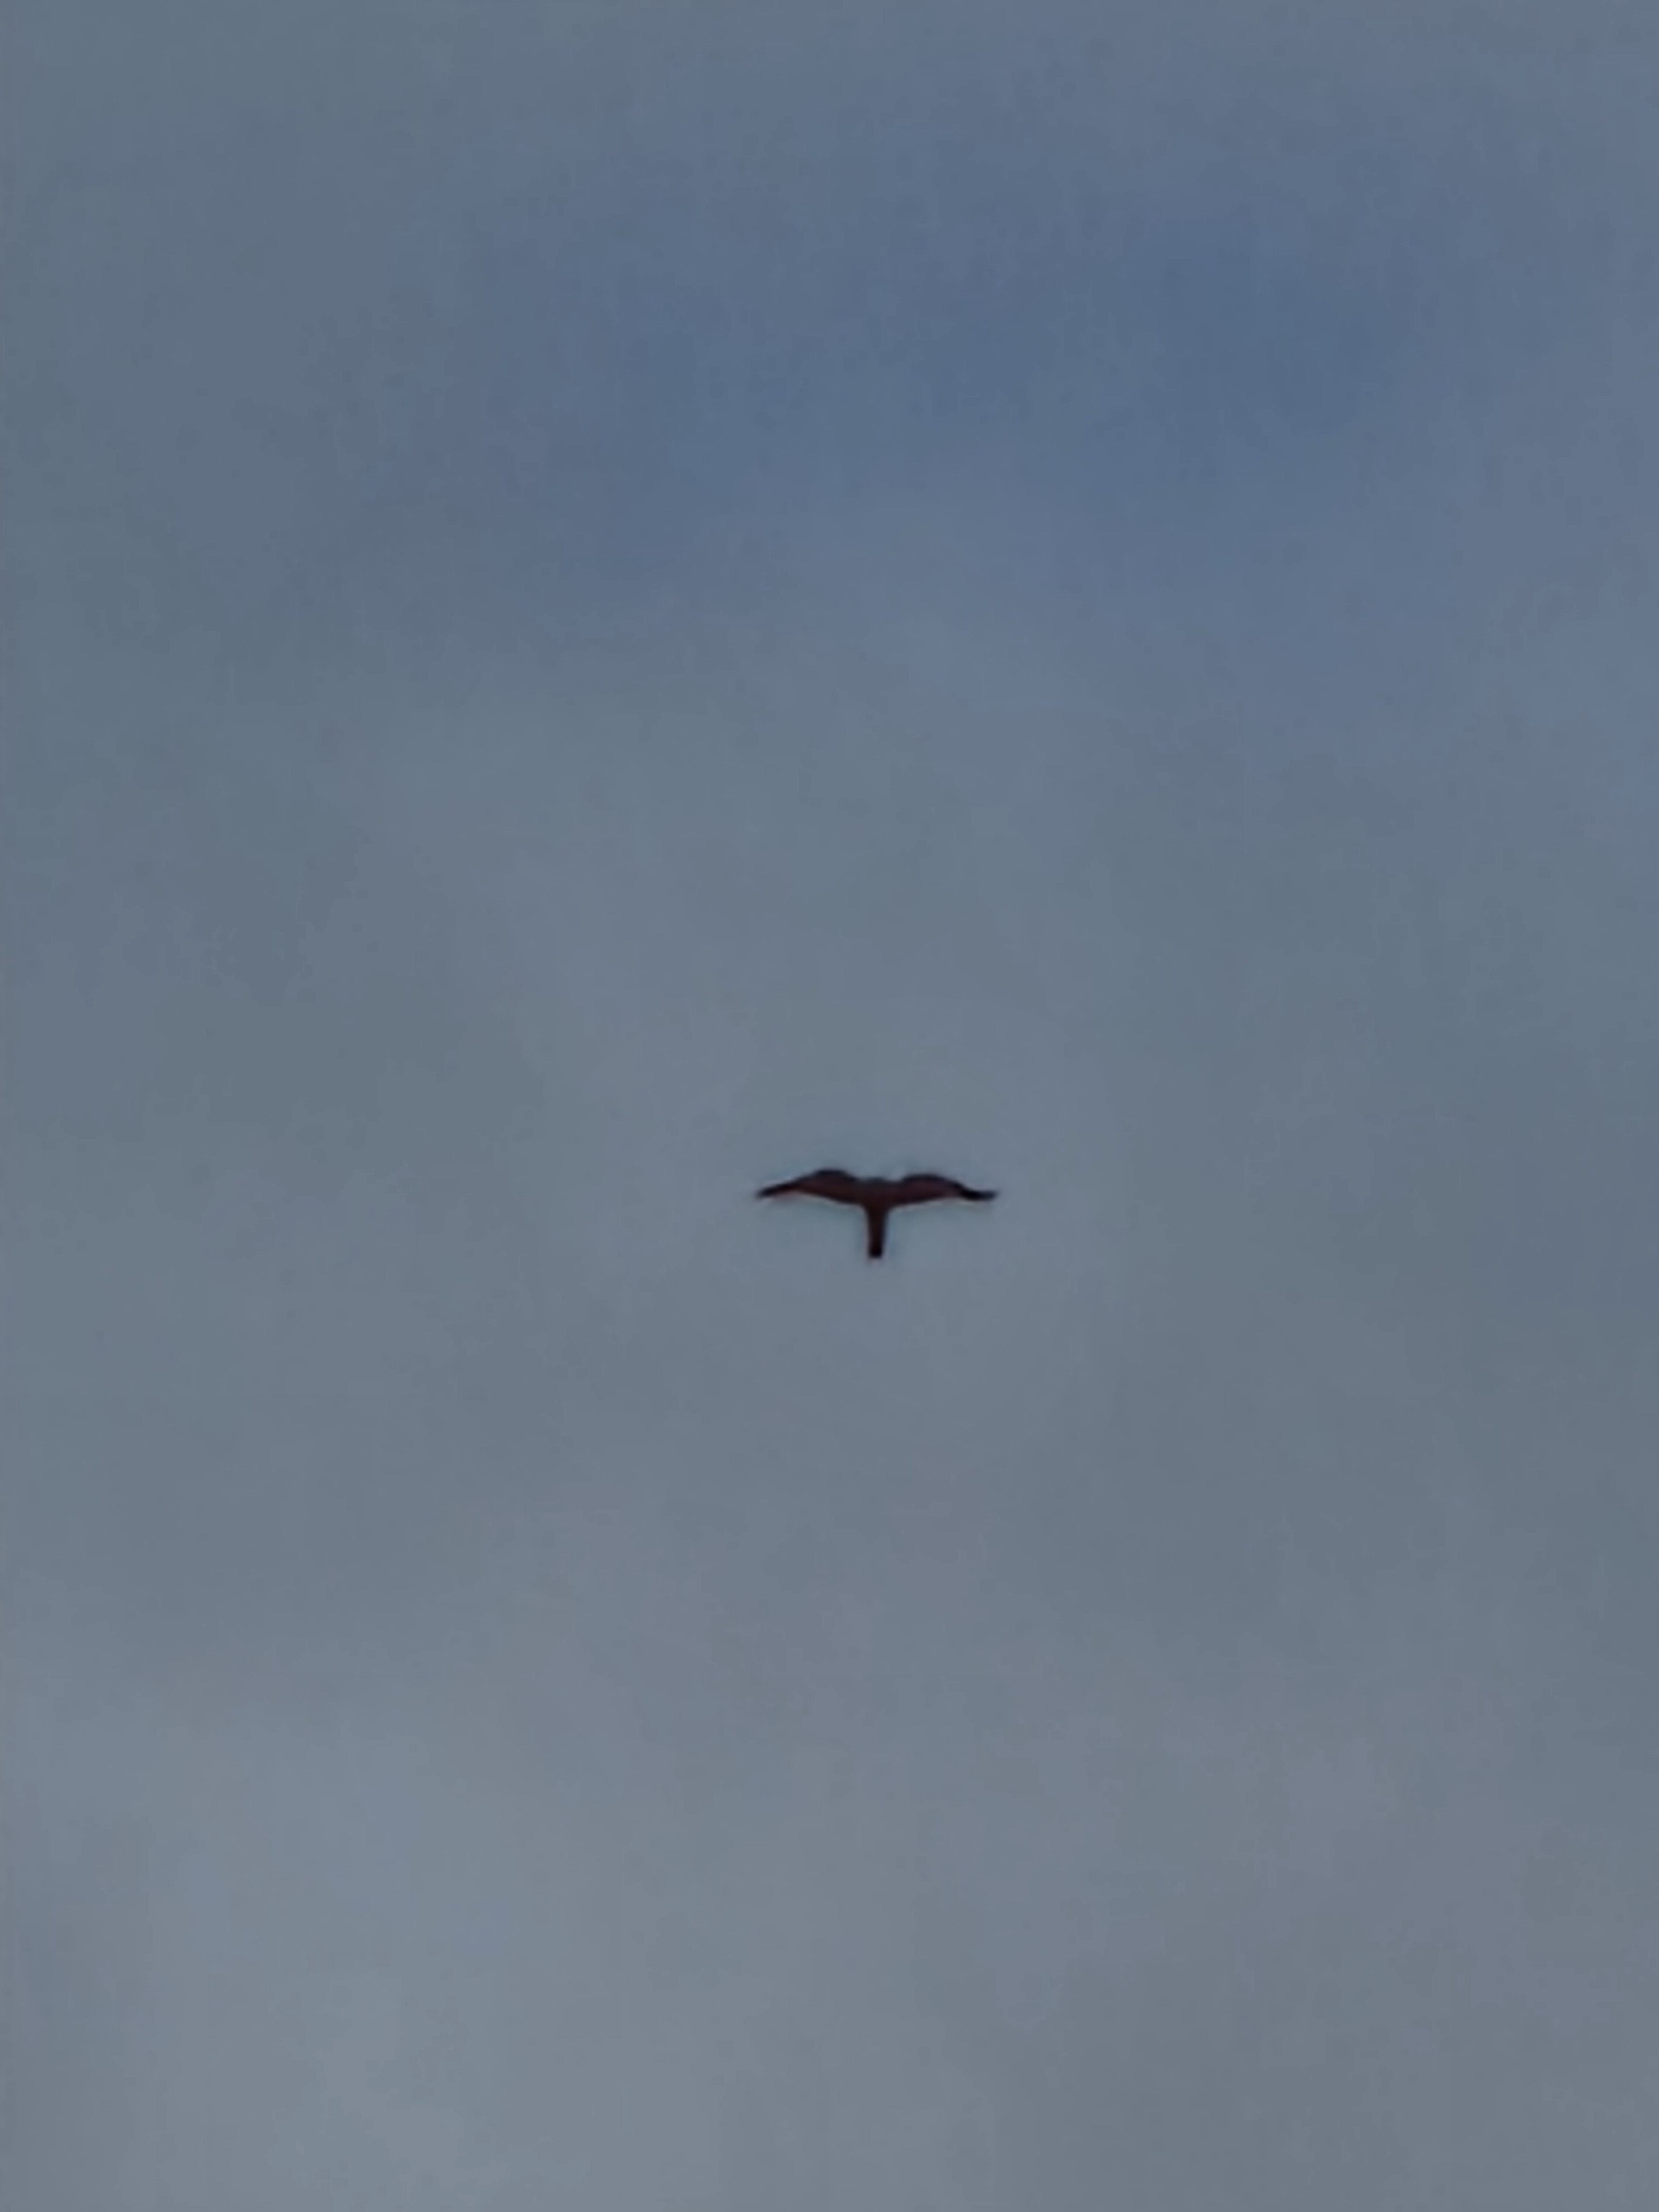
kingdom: Animalia
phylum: Chordata
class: Aves
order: Falconiformes
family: Falconidae
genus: Falco
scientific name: Falco tinnunculus
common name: Tårnfalk
